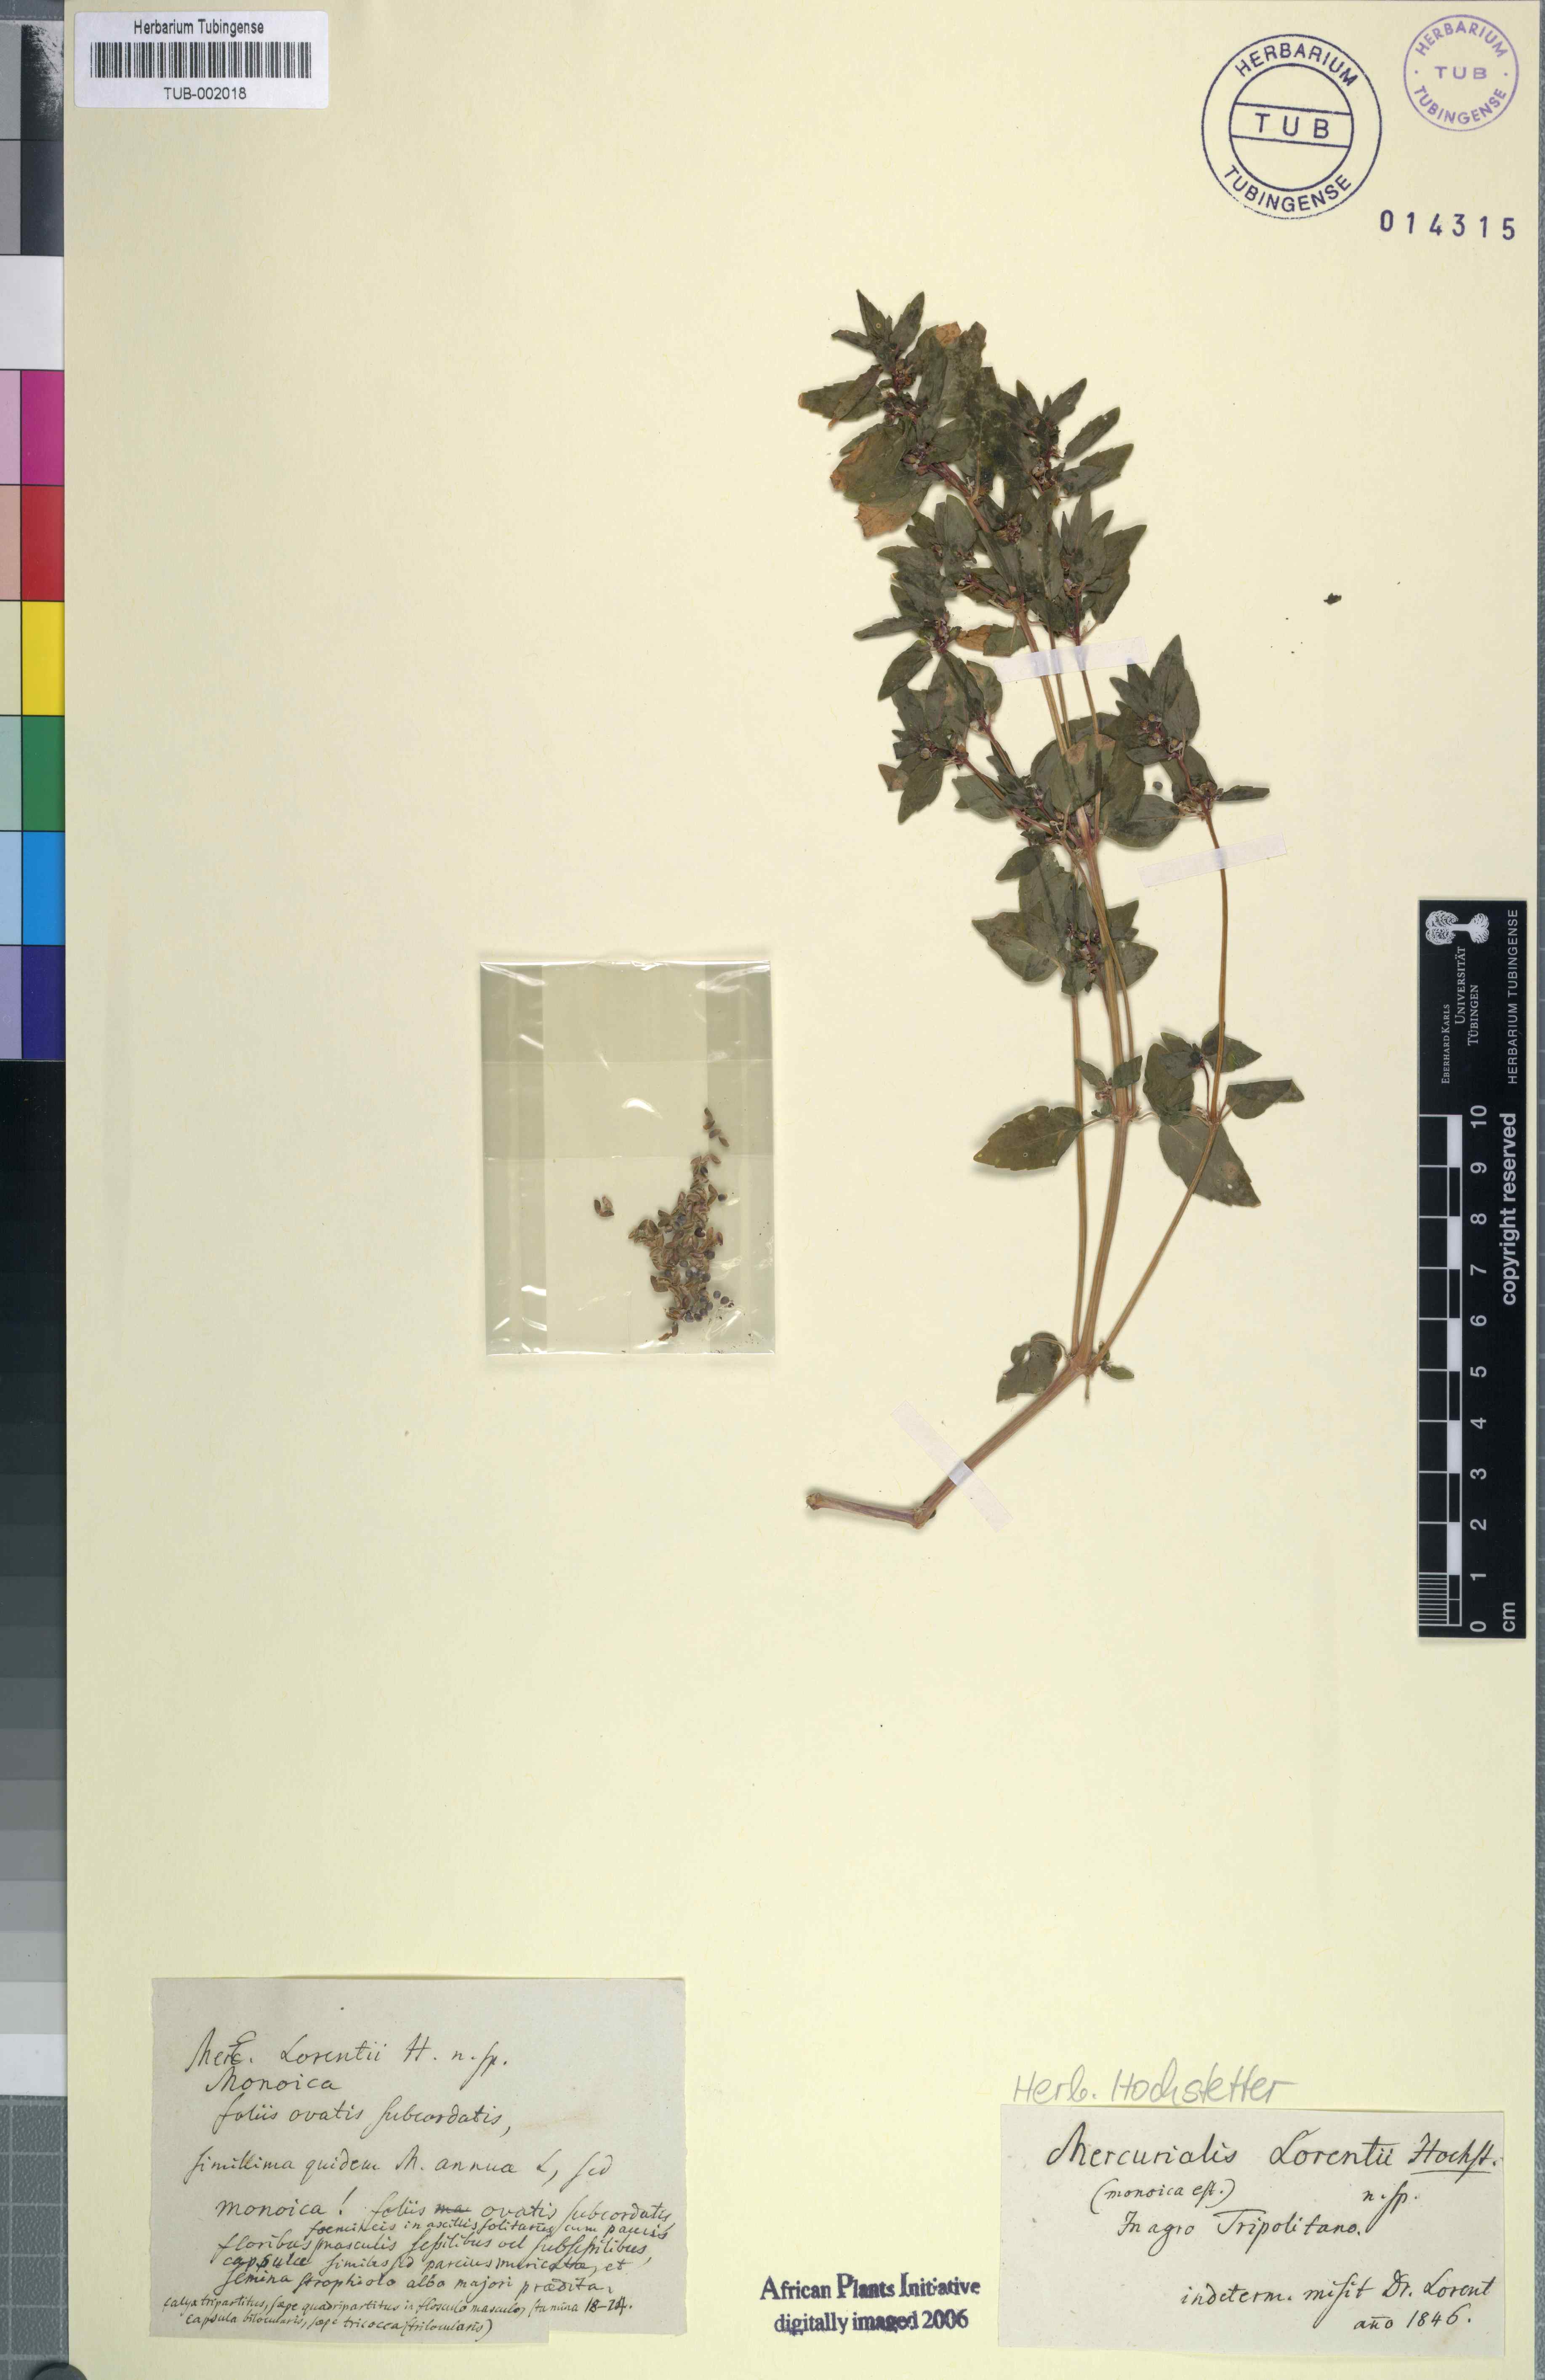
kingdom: Plantae
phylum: Tracheophyta
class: Magnoliopsida
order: Malpighiales
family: Euphorbiaceae
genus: Mercurialis
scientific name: Mercurialis
